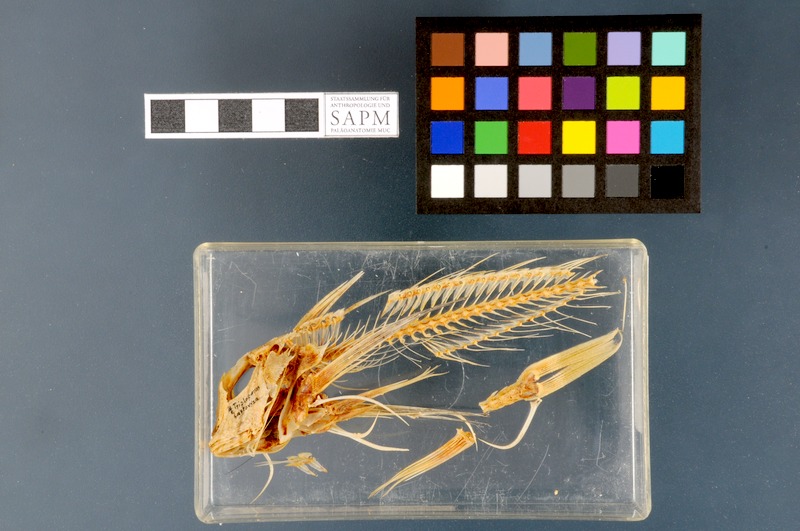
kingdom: Animalia
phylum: Chordata
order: Scorpaeniformes
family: Triglidae
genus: Chelidonichthys
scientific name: Chelidonichthys lastoviza
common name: Streaked gurnard
